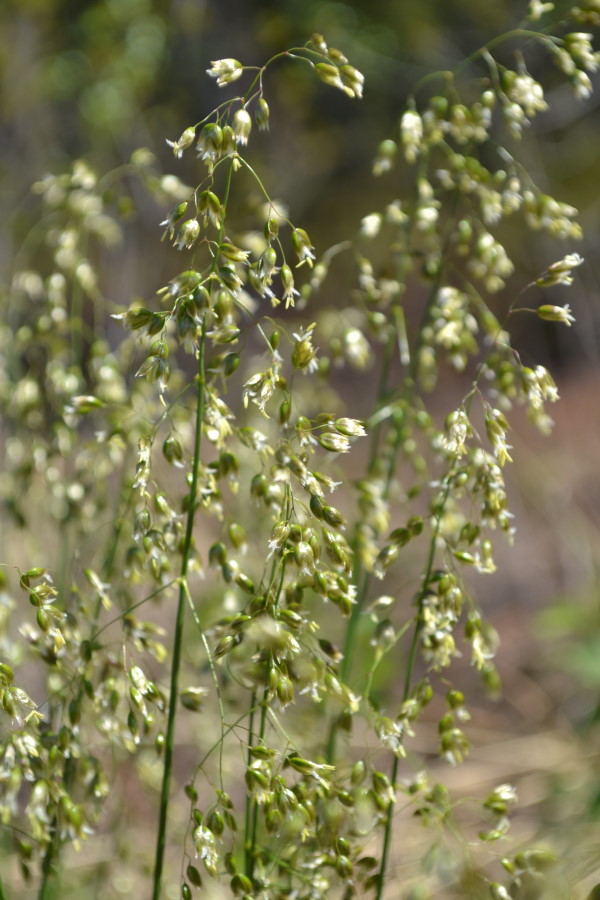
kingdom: Plantae
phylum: Tracheophyta
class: Liliopsida
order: Poales
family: Poaceae
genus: Anthoxanthum
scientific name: Anthoxanthum nitens
